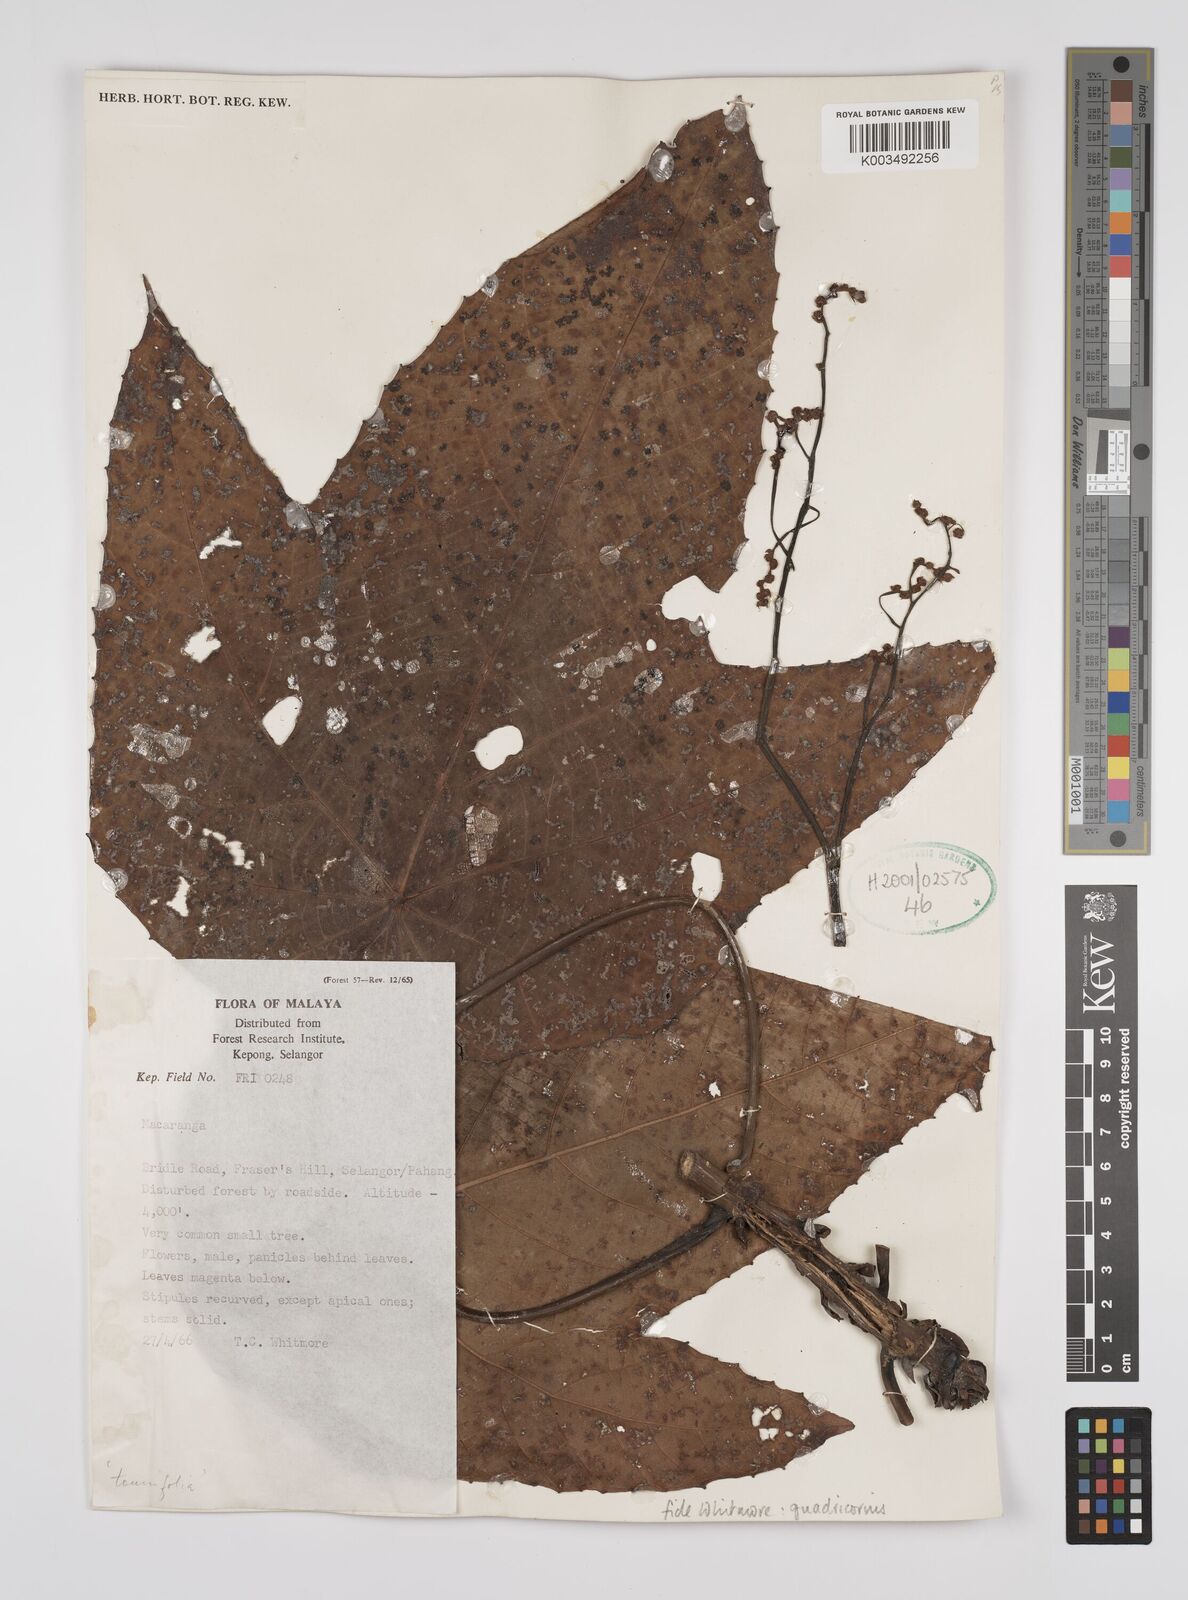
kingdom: Plantae
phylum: Tracheophyta
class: Magnoliopsida
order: Malpighiales
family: Euphorbiaceae
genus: Macaranga
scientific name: Macaranga triloba
